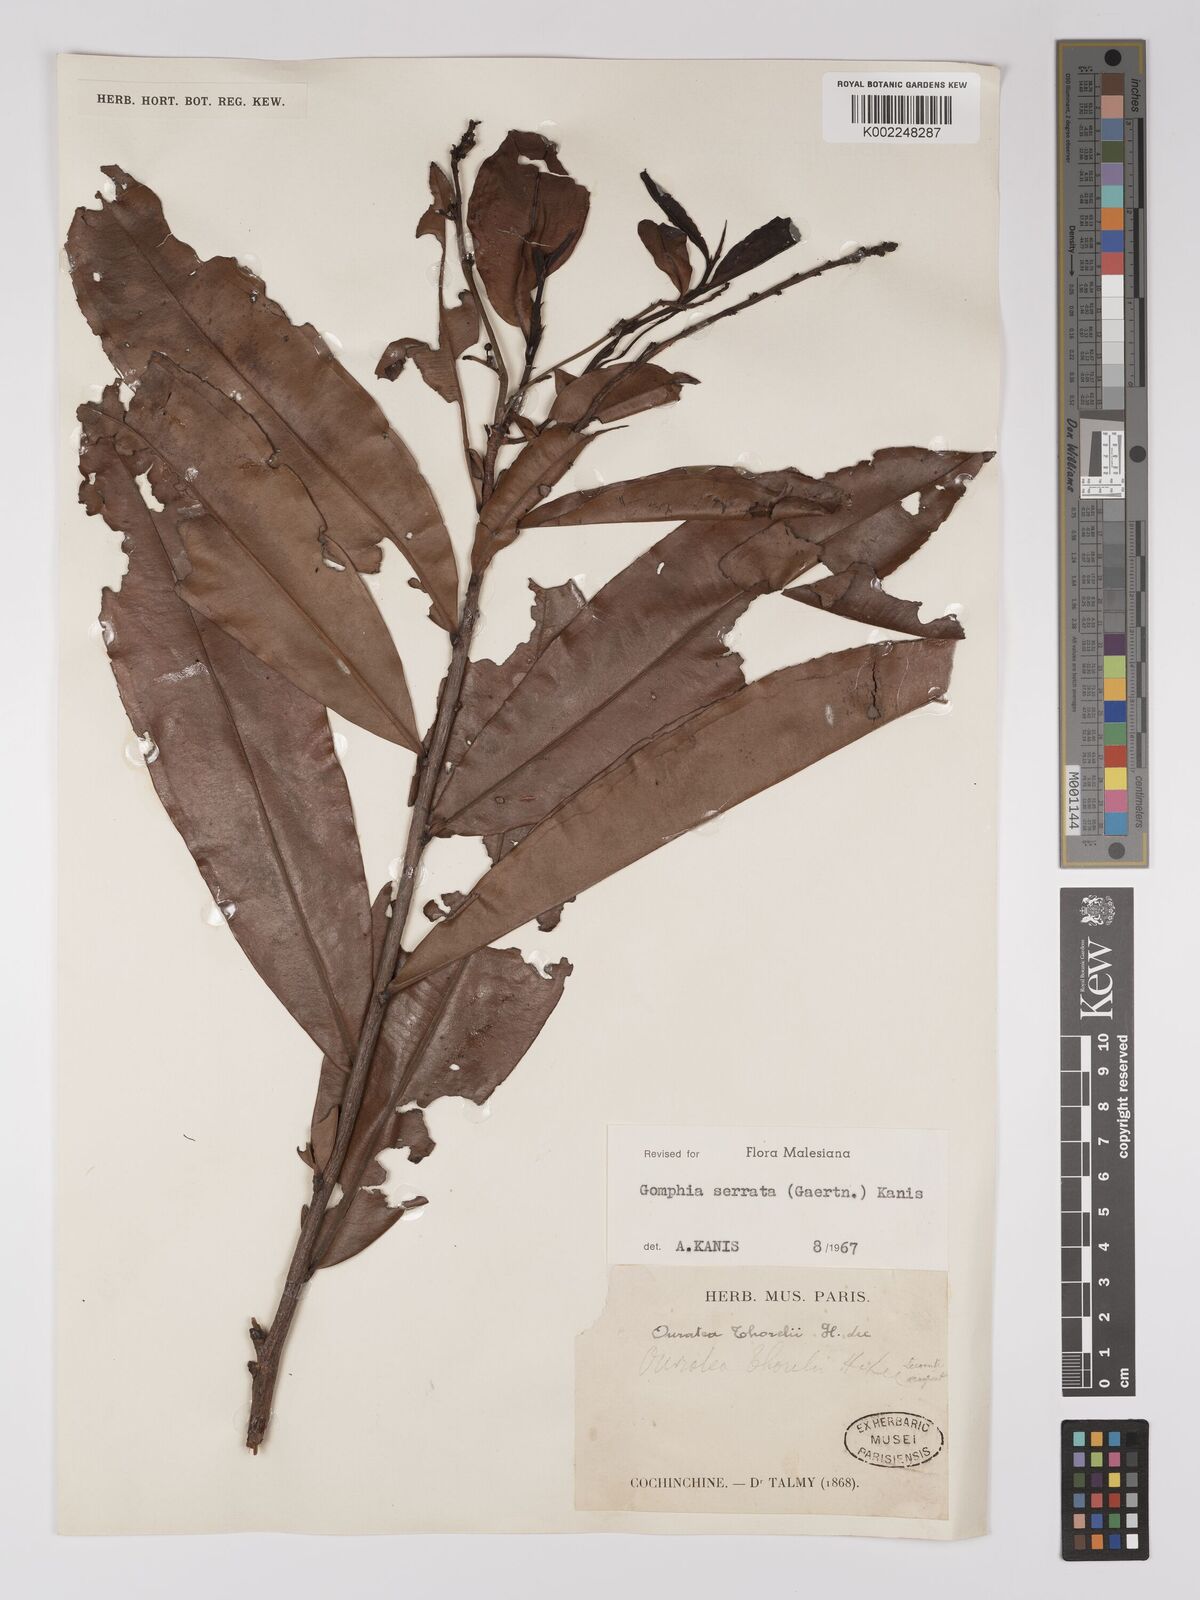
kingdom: Plantae
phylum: Tracheophyta
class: Magnoliopsida
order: Malpighiales
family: Ochnaceae
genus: Gomphia
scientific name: Gomphia serrata
